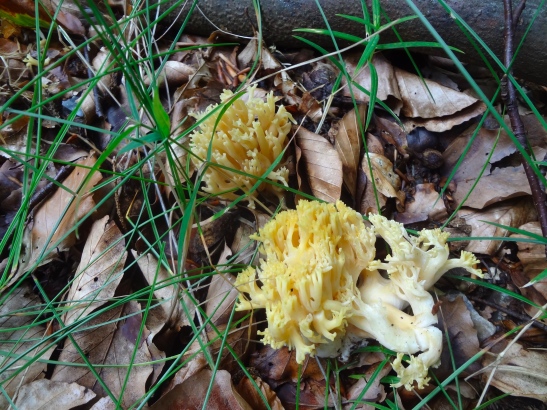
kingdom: Fungi
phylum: Basidiomycota
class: Agaricomycetes
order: Gomphales
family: Gomphaceae
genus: Ramaria
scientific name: Ramaria
